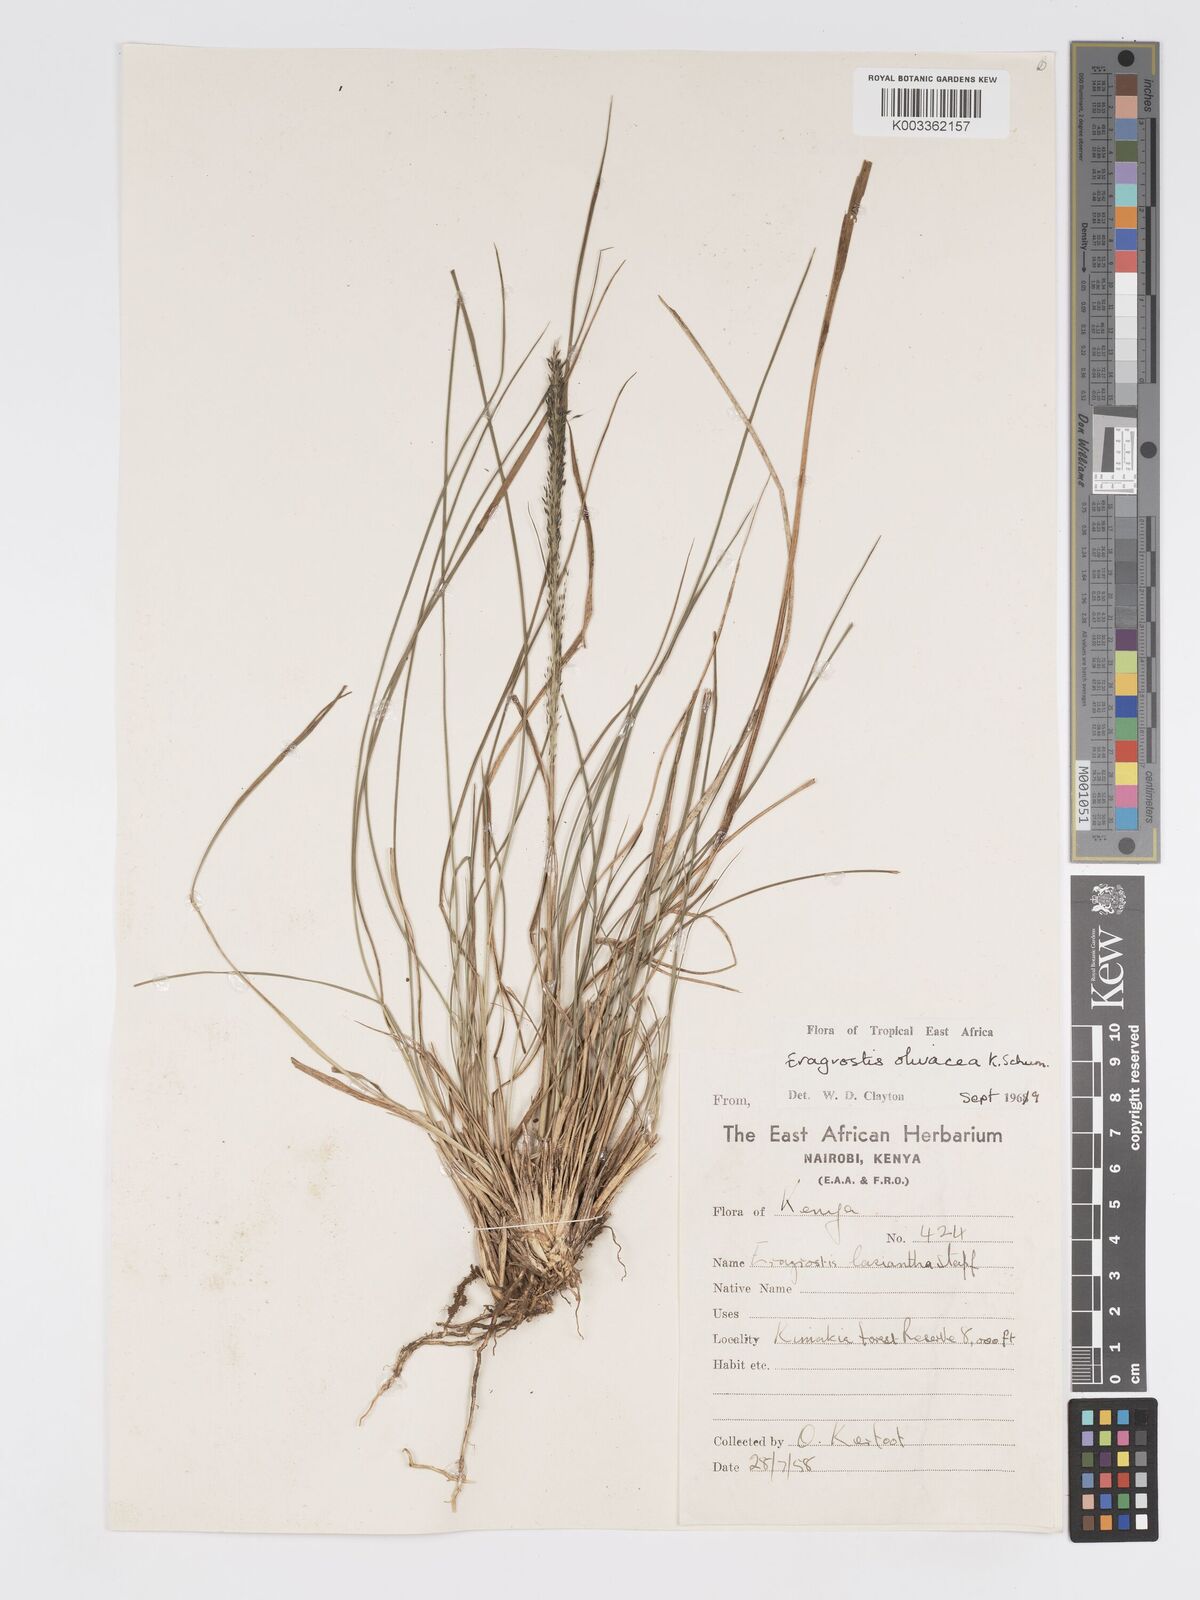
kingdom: Plantae
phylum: Tracheophyta
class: Liliopsida
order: Poales
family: Poaceae
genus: Eragrostis
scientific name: Eragrostis olivacea
